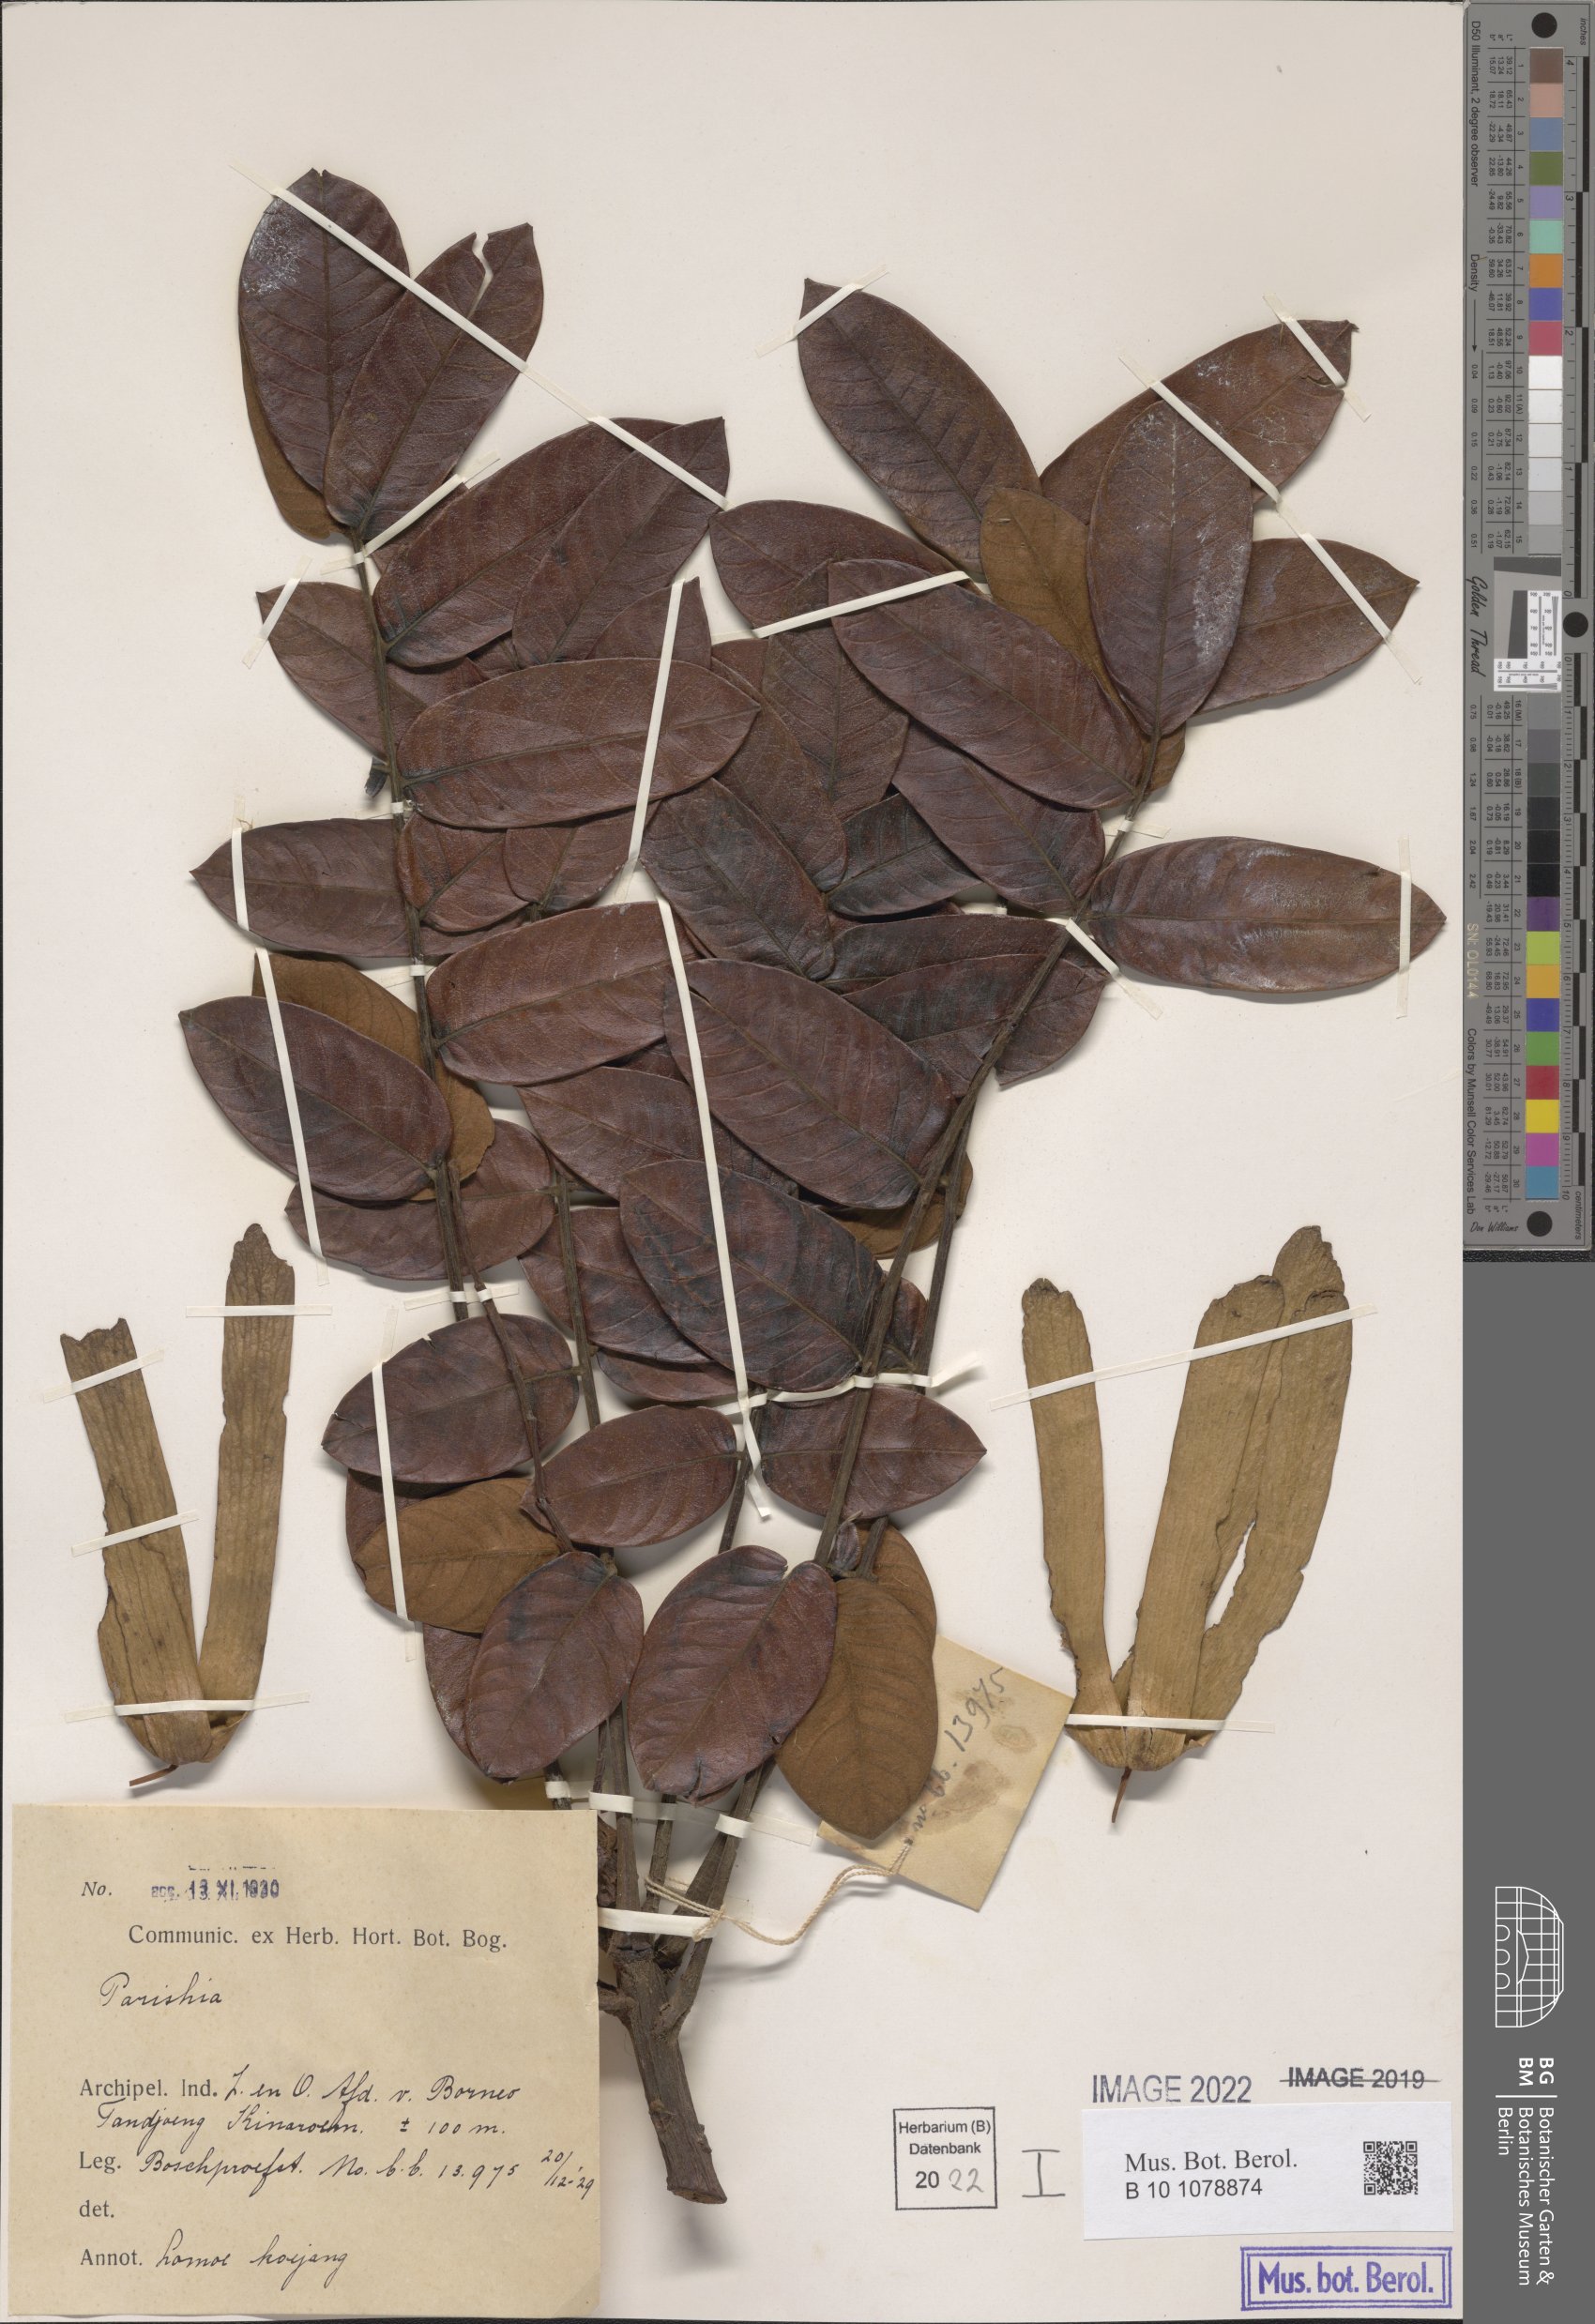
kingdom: Plantae
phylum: Tracheophyta
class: Magnoliopsida
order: Sapindales
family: Anacardiaceae
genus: Parishia
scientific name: Parishia
